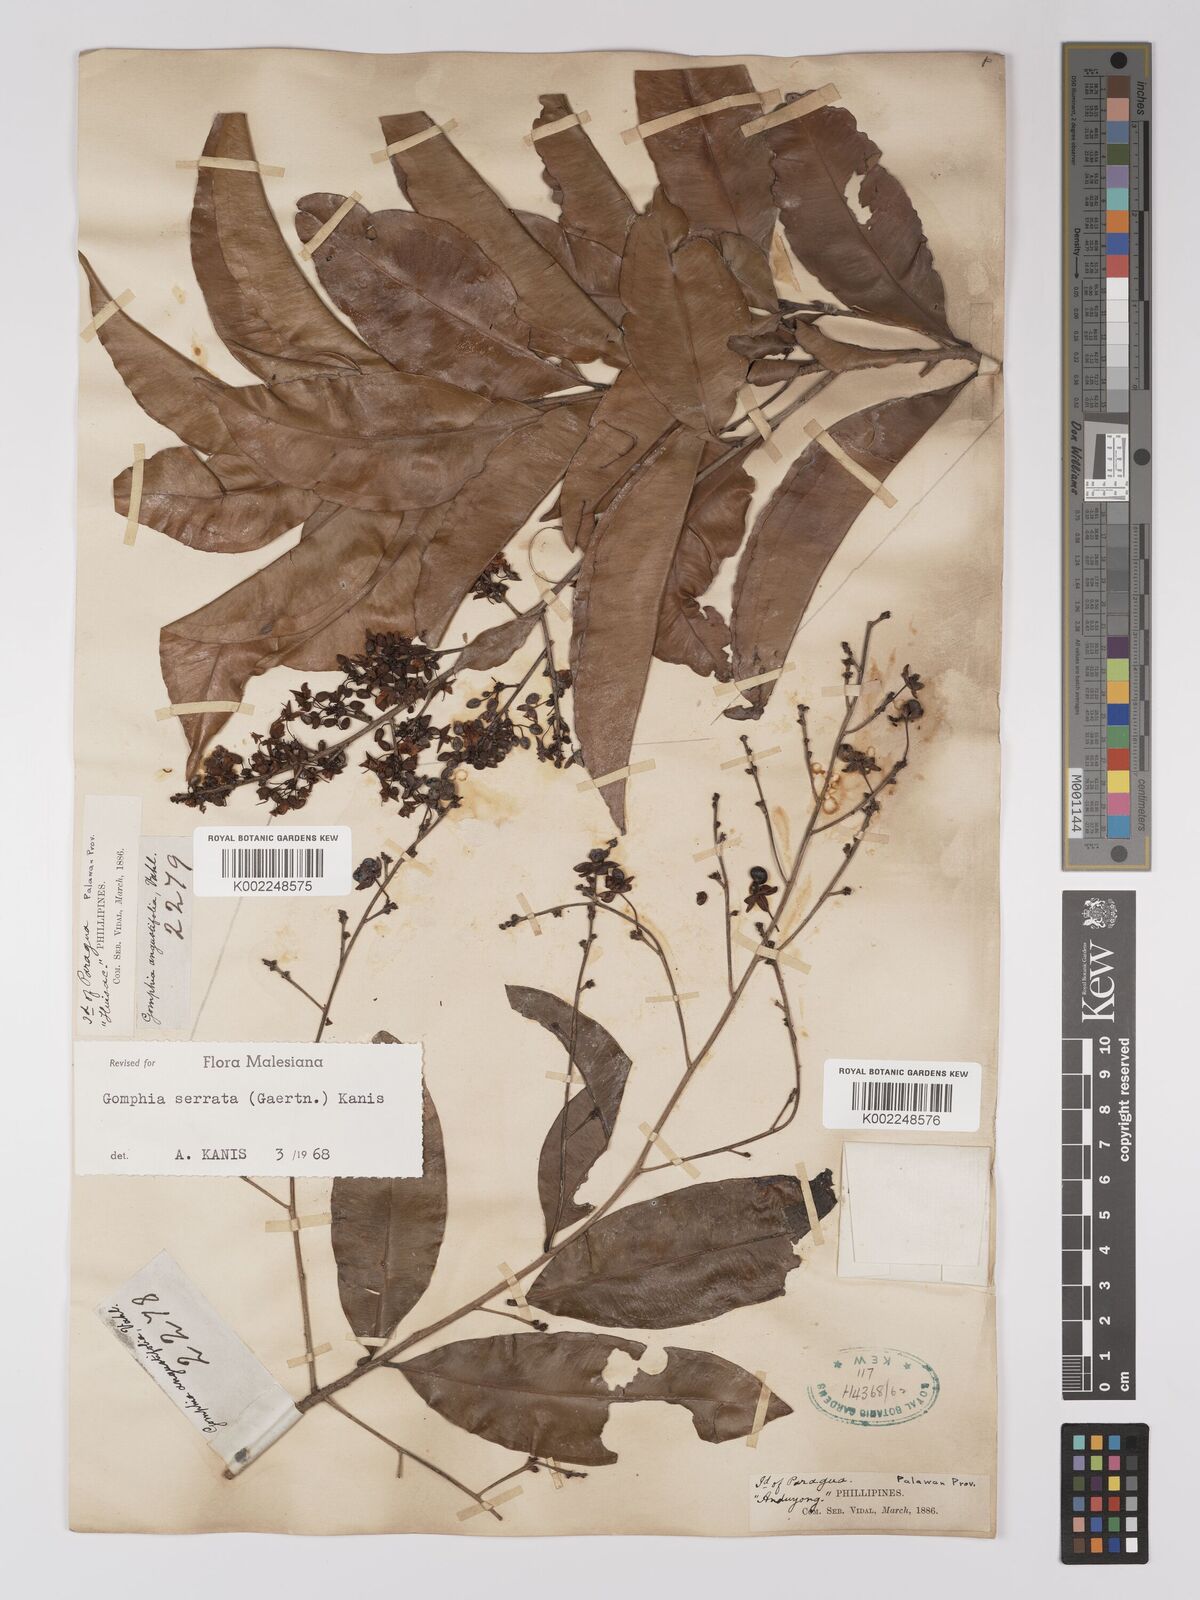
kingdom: Plantae
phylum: Tracheophyta
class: Magnoliopsida
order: Malpighiales
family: Ochnaceae
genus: Gomphia
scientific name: Gomphia serrata
